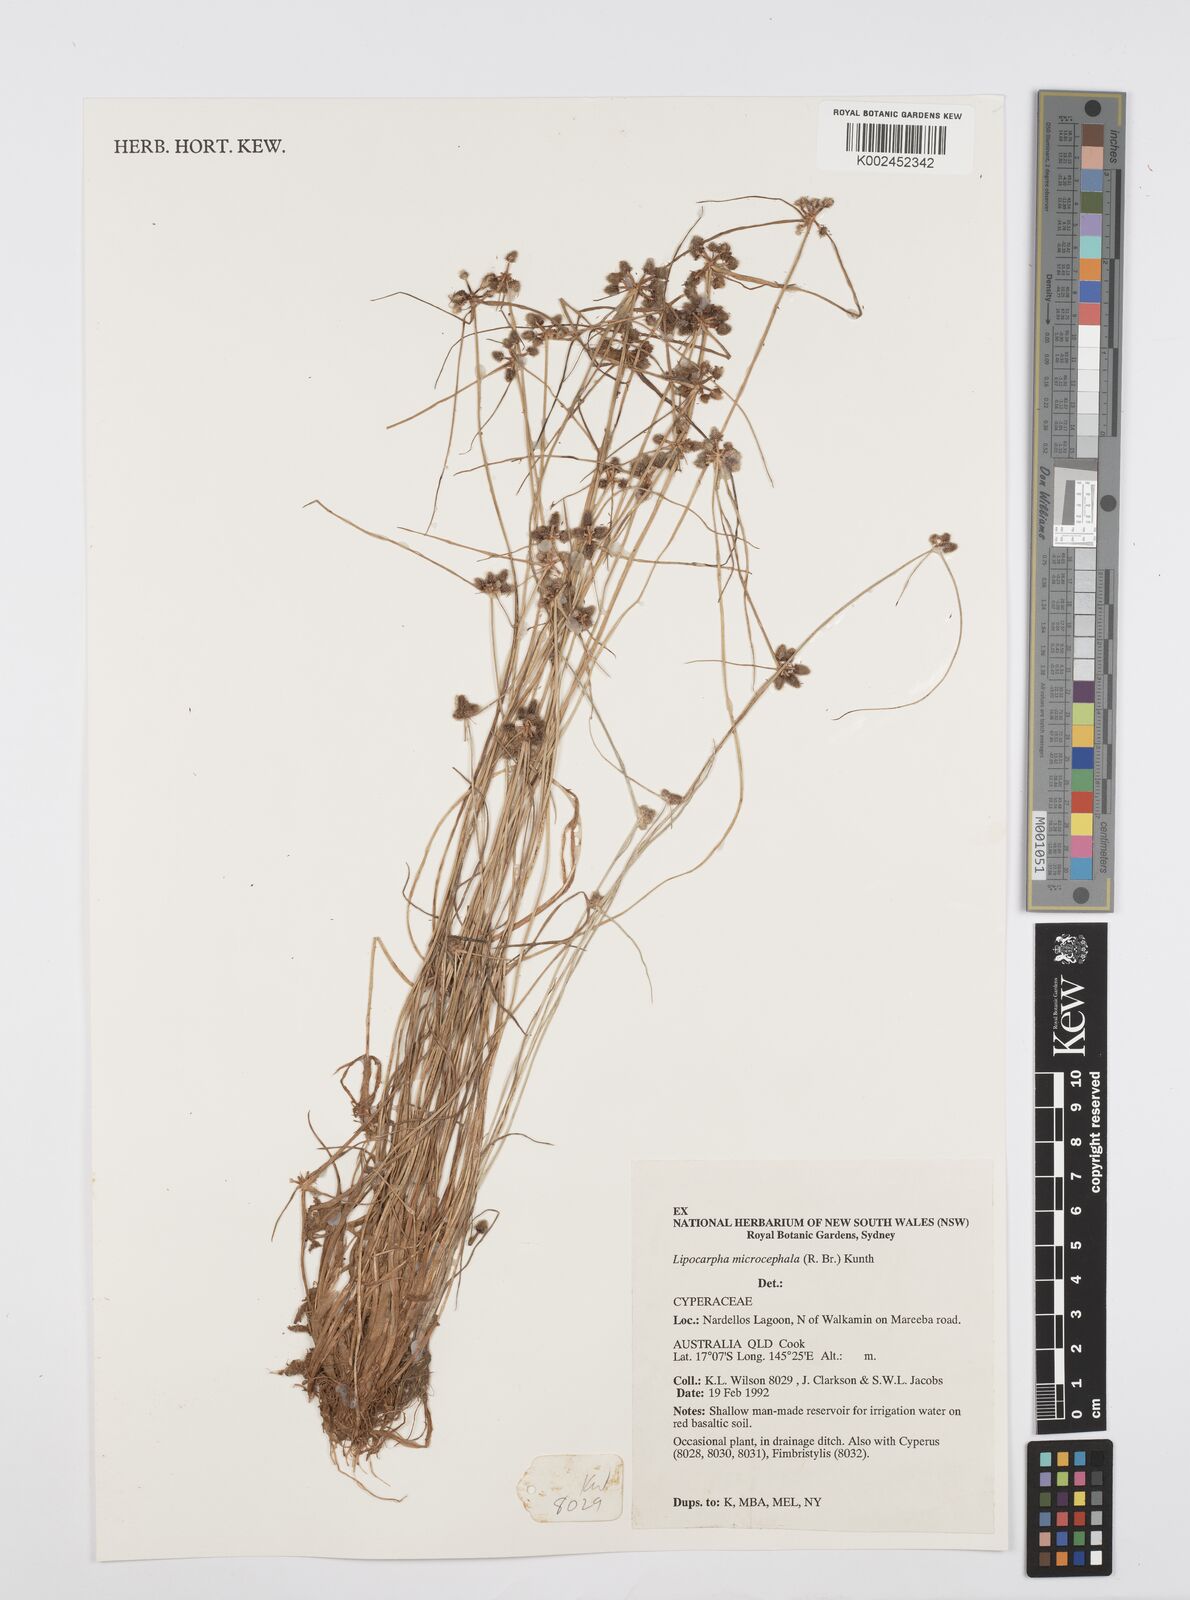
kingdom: Plantae
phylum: Tracheophyta
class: Liliopsida
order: Poales
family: Cyperaceae
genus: Cyperus
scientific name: Cyperus microcephalus
